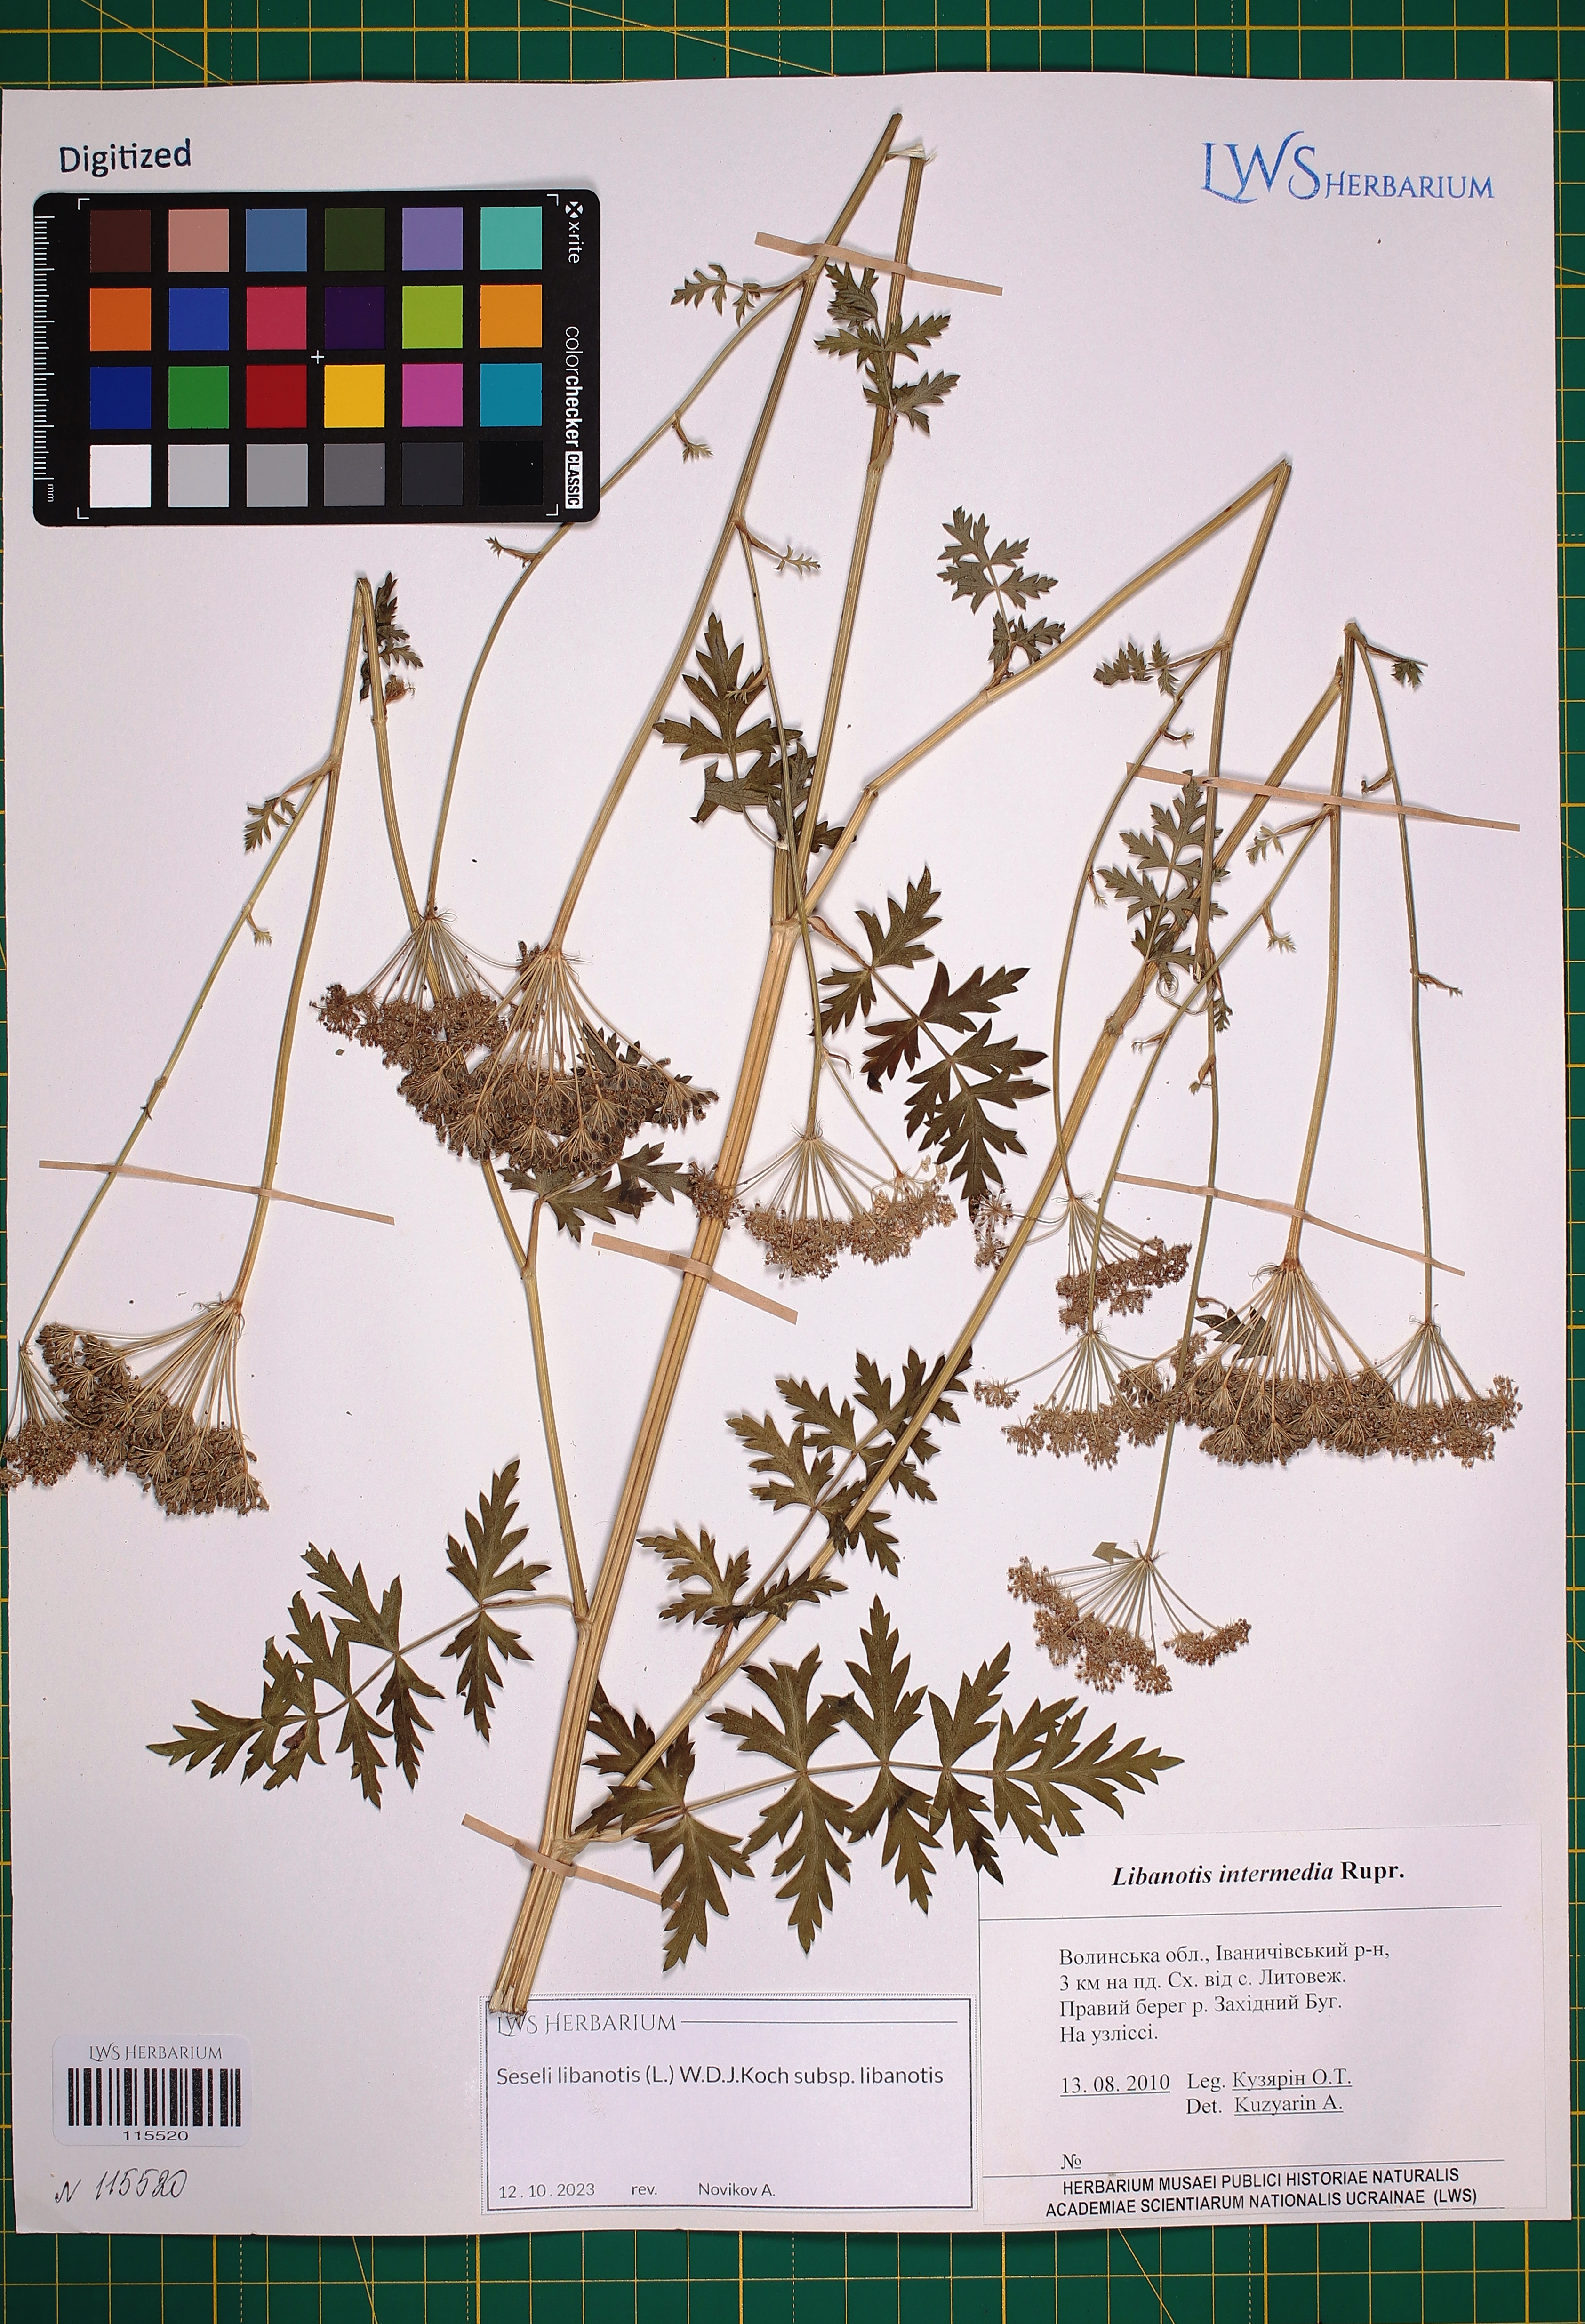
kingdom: Plantae
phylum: Tracheophyta
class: Magnoliopsida
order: Apiales
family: Apiaceae
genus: Seseli
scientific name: Seseli libanotis
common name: Mooncarrot
